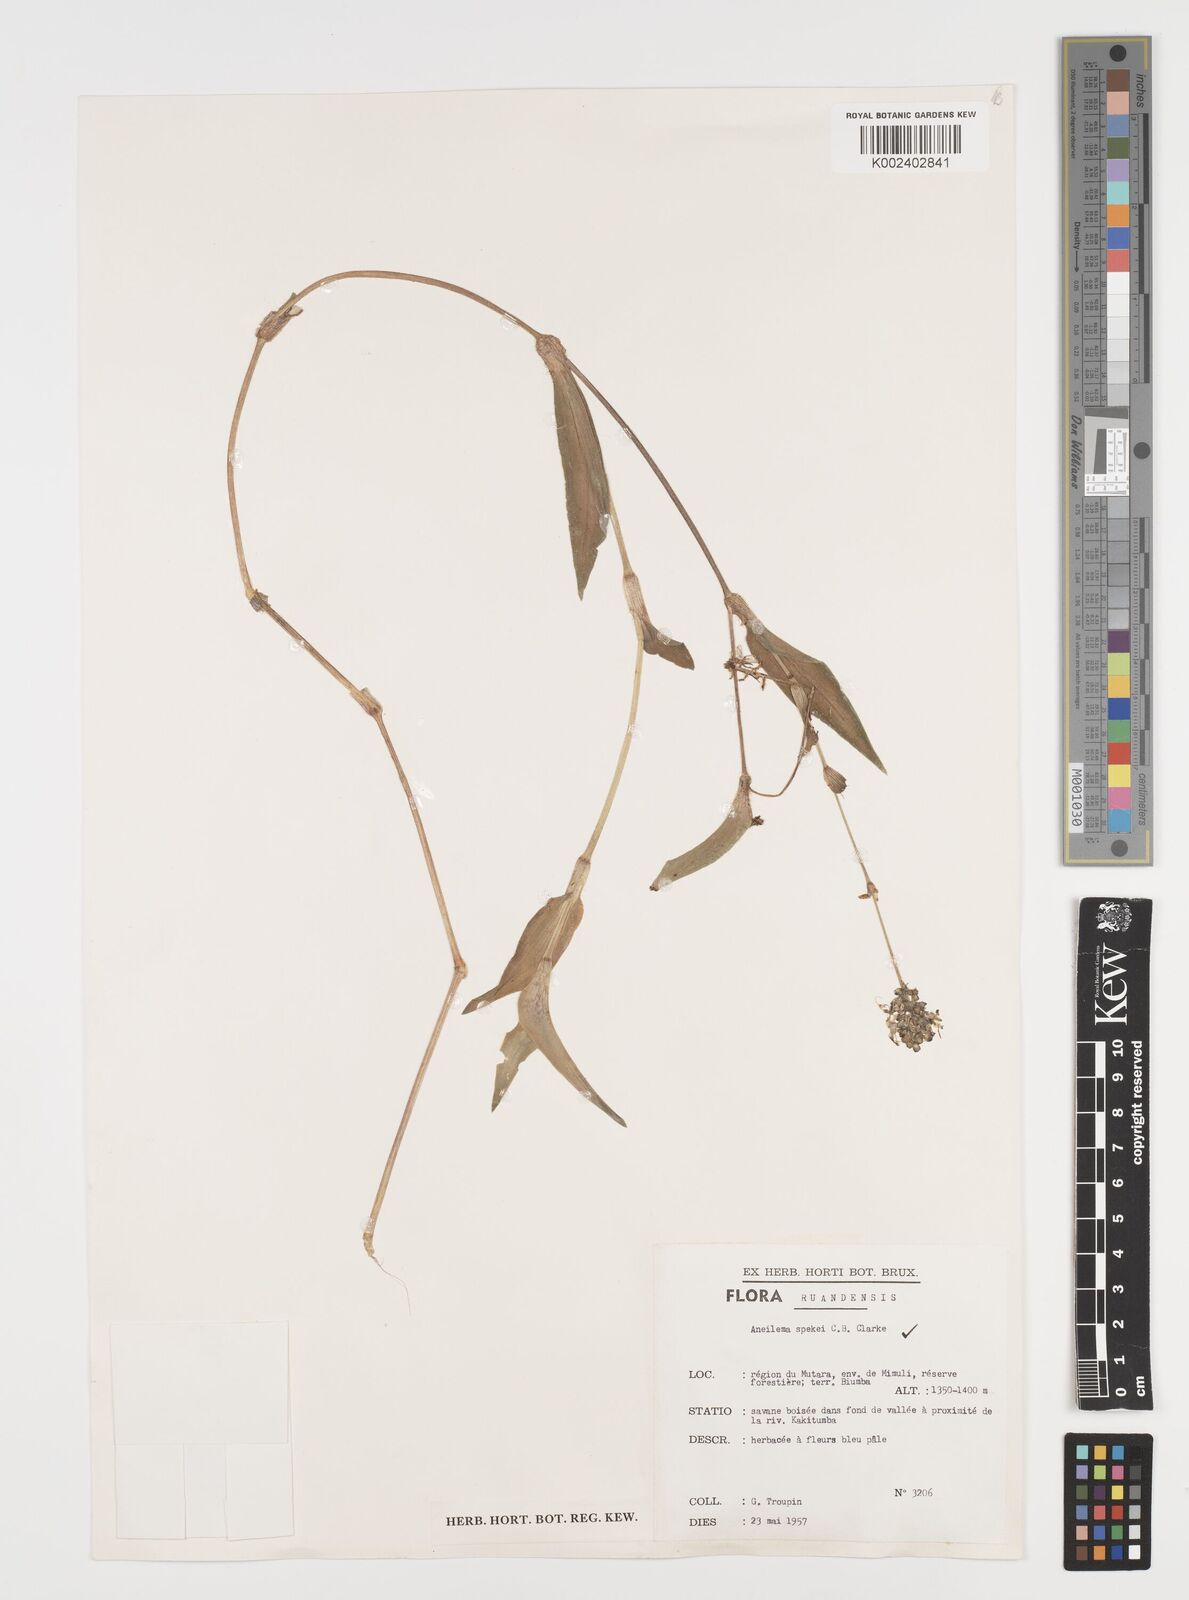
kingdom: Plantae
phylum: Tracheophyta
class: Liliopsida
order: Commelinales
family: Commelinaceae
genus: Aneilema
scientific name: Aneilema spekei
